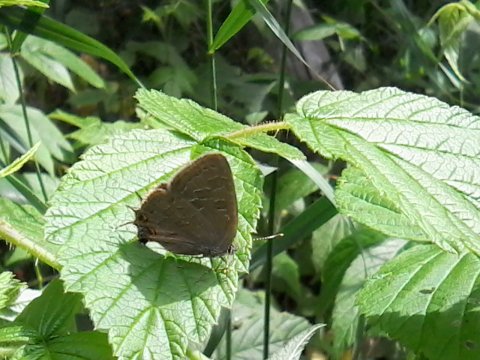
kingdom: Animalia
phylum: Arthropoda
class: Insecta
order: Lepidoptera
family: Lycaenidae
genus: Satyrium
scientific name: Satyrium liparops
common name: Striped Hairstreak
